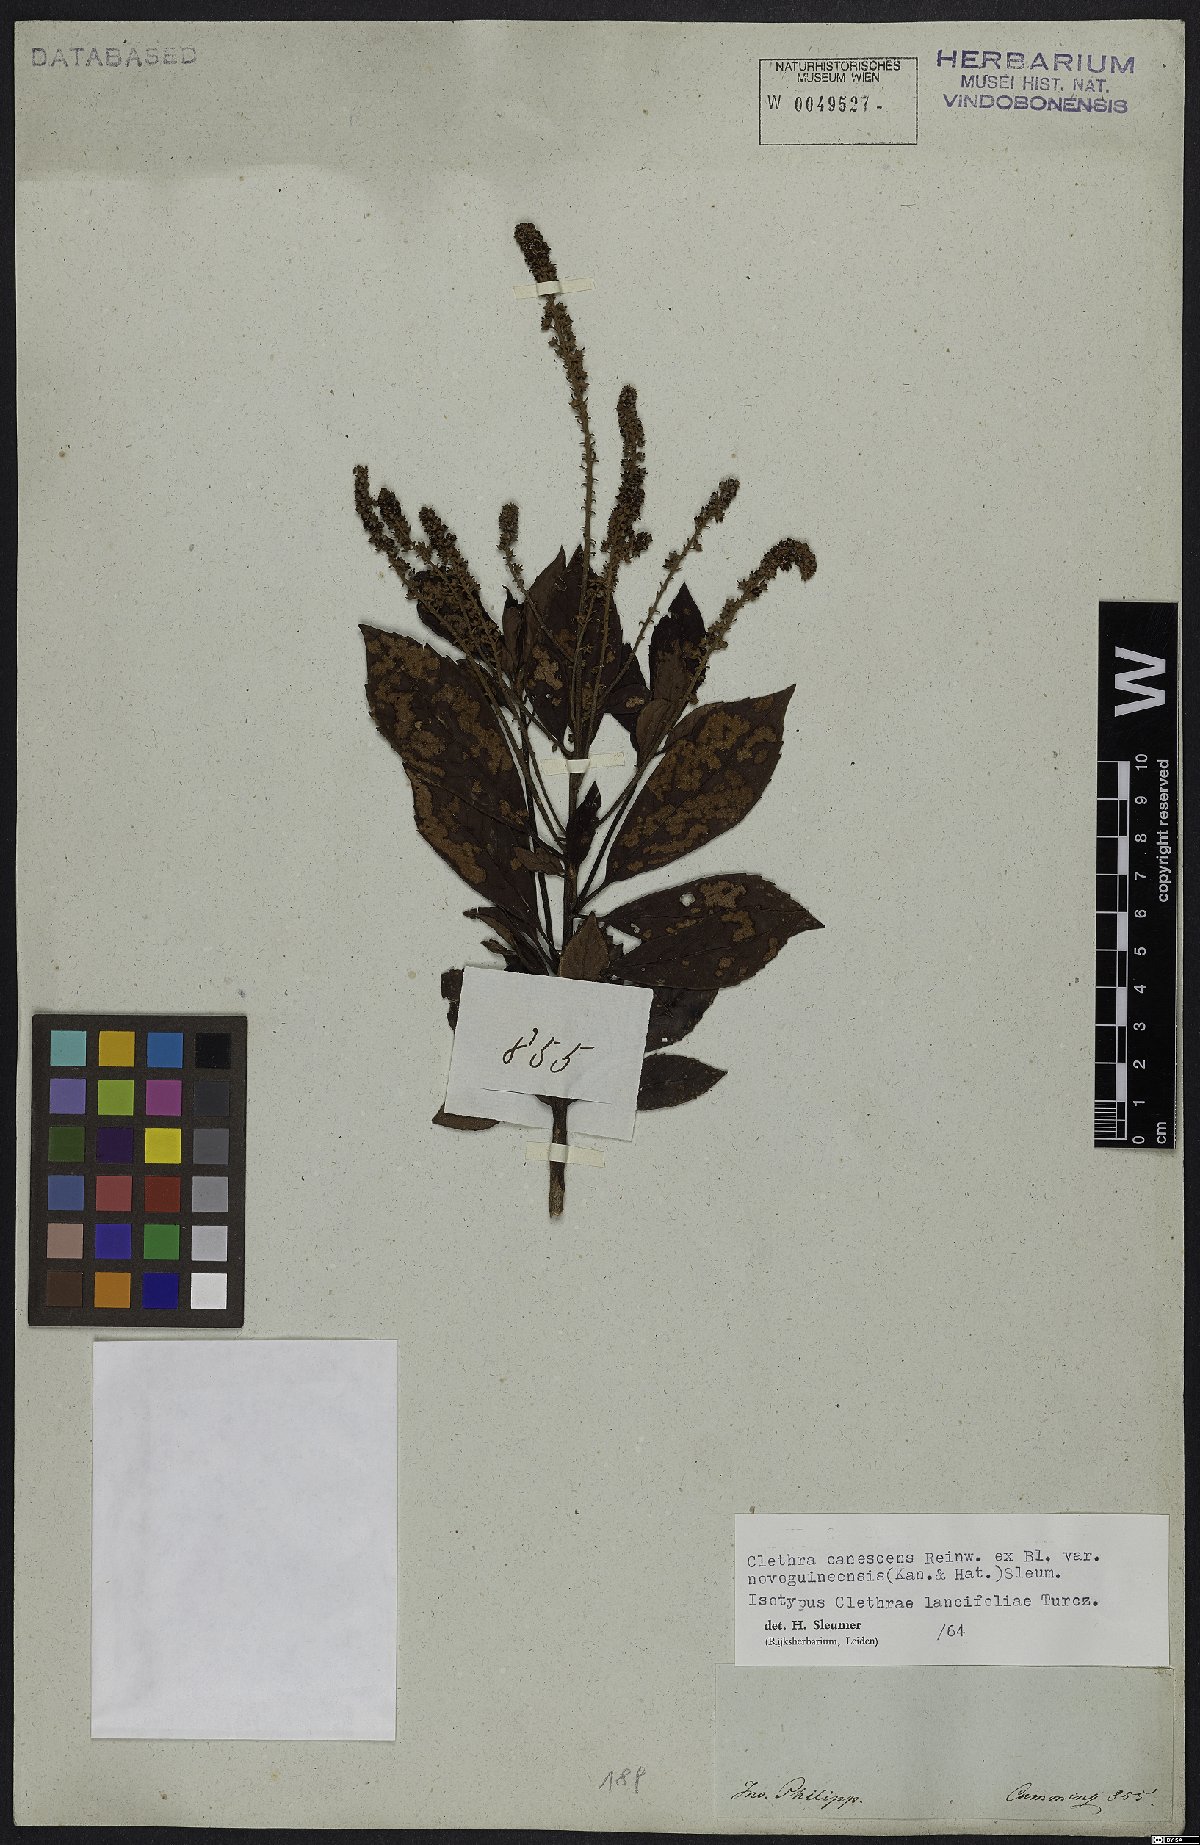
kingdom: Plantae
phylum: Tracheophyta
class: Magnoliopsida
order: Ericales
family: Clethraceae
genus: Clethra
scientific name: Clethra canescens
